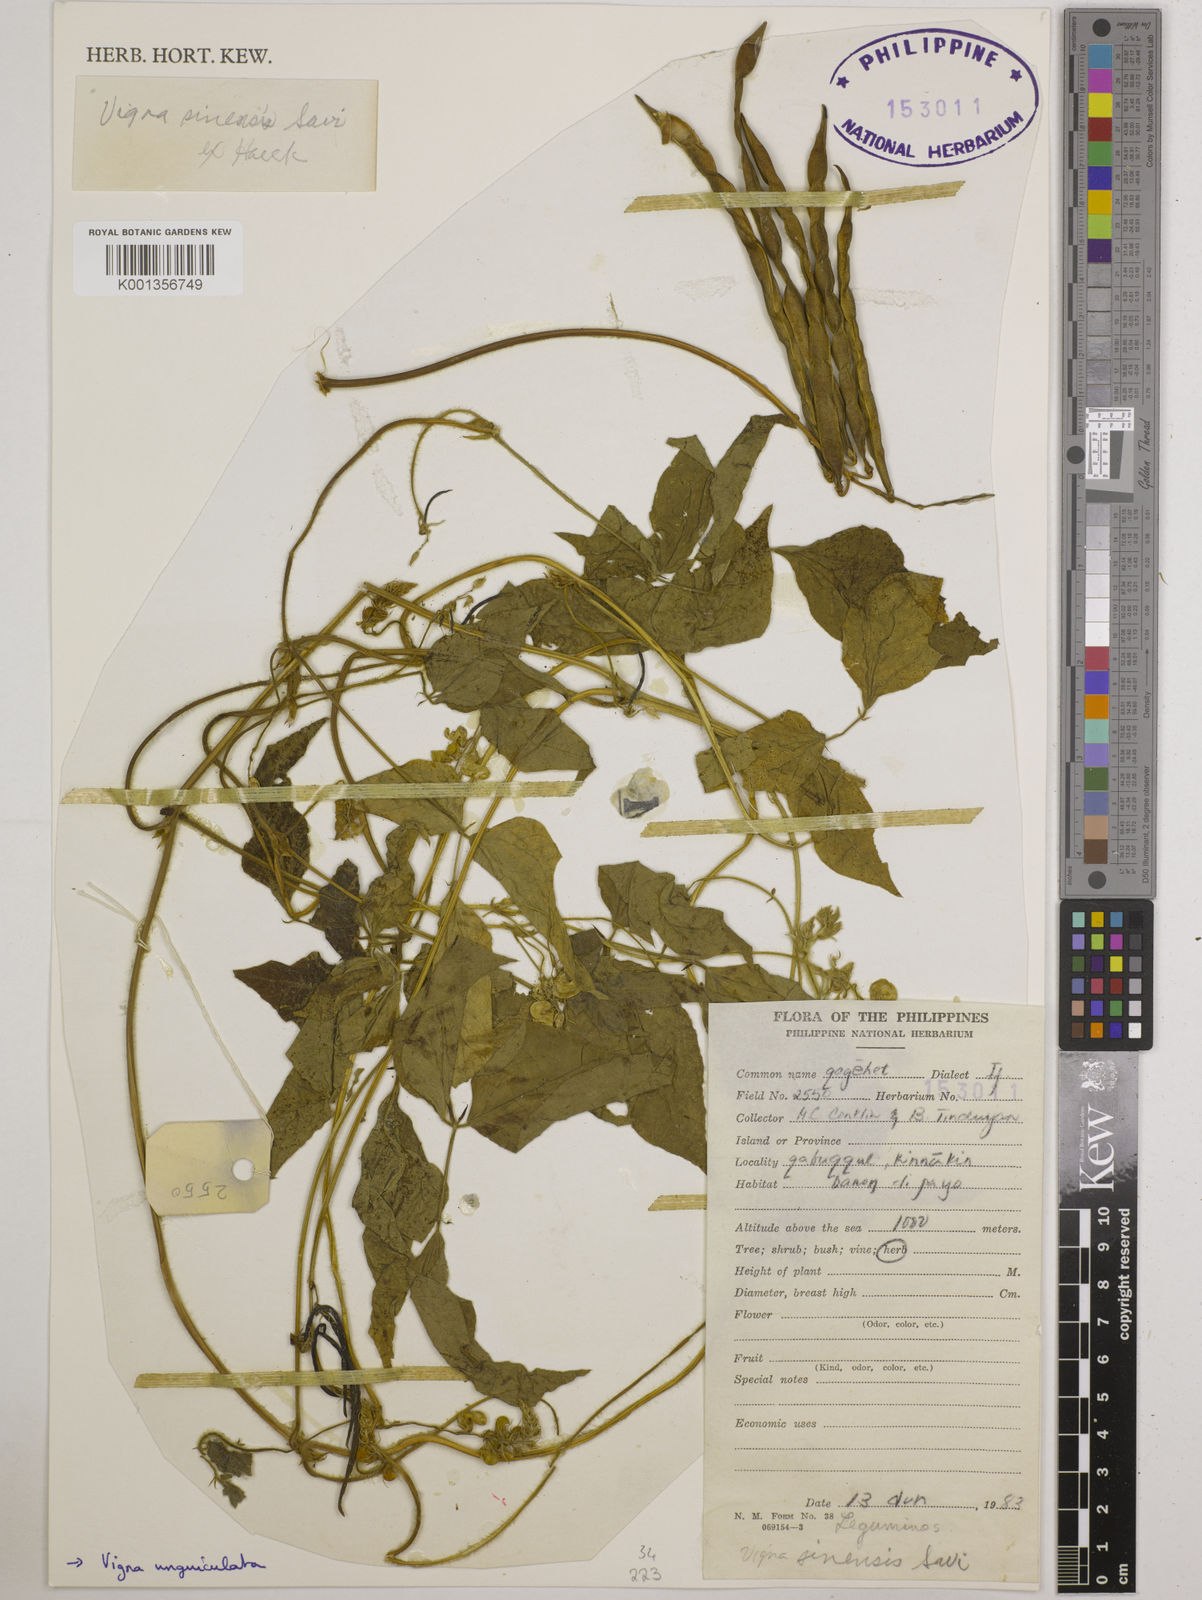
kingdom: Plantae
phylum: Tracheophyta
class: Magnoliopsida
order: Fabales
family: Fabaceae
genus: Vigna
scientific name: Vigna unguiculata
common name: Cowpea
